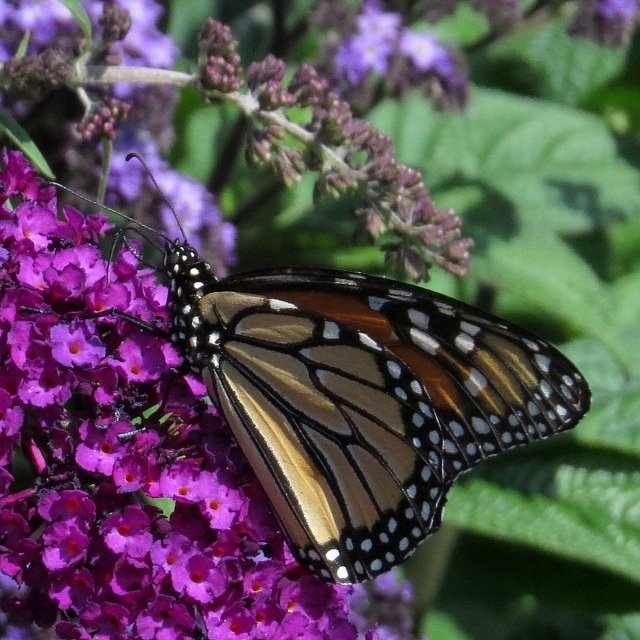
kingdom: Animalia
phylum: Arthropoda
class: Insecta
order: Lepidoptera
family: Nymphalidae
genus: Danaus
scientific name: Danaus plexippus
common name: Monarch
